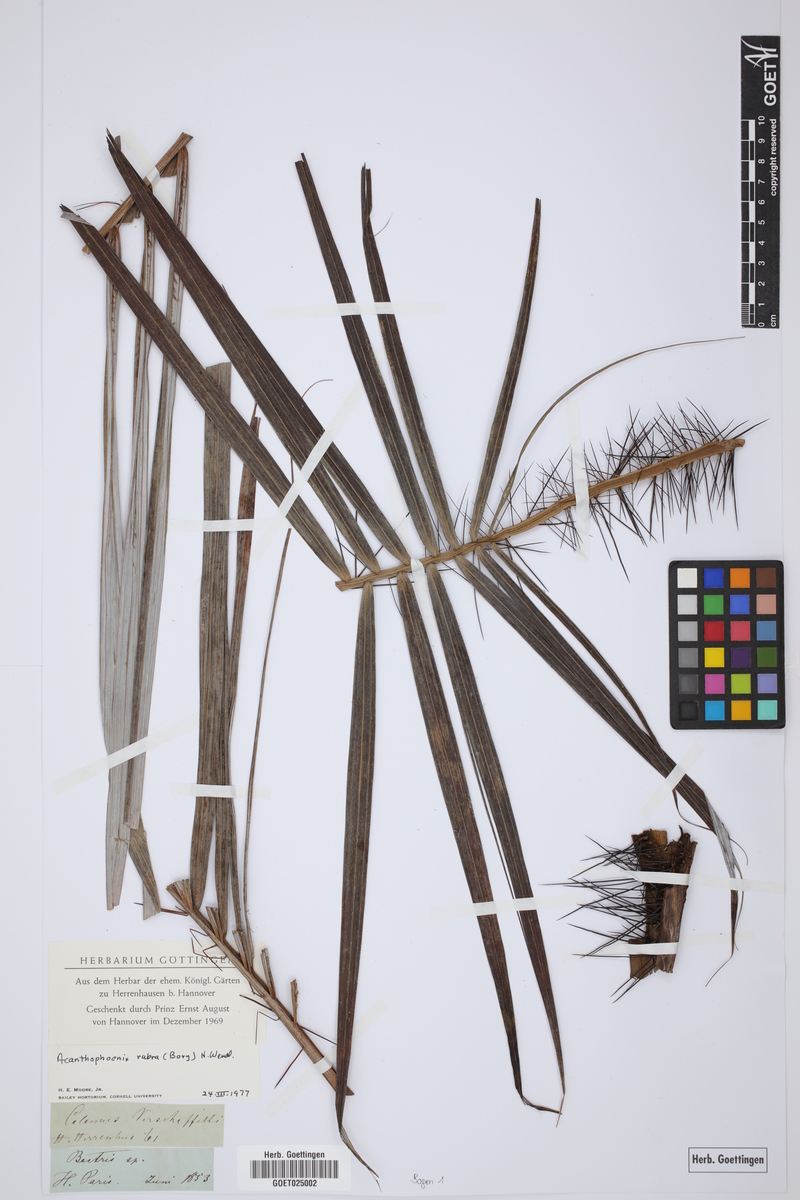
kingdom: Plantae
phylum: Tracheophyta
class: Liliopsida
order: Arecales
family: Arecaceae
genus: Acanthophoenix
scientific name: Acanthophoenix rubra
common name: Barbel palm
